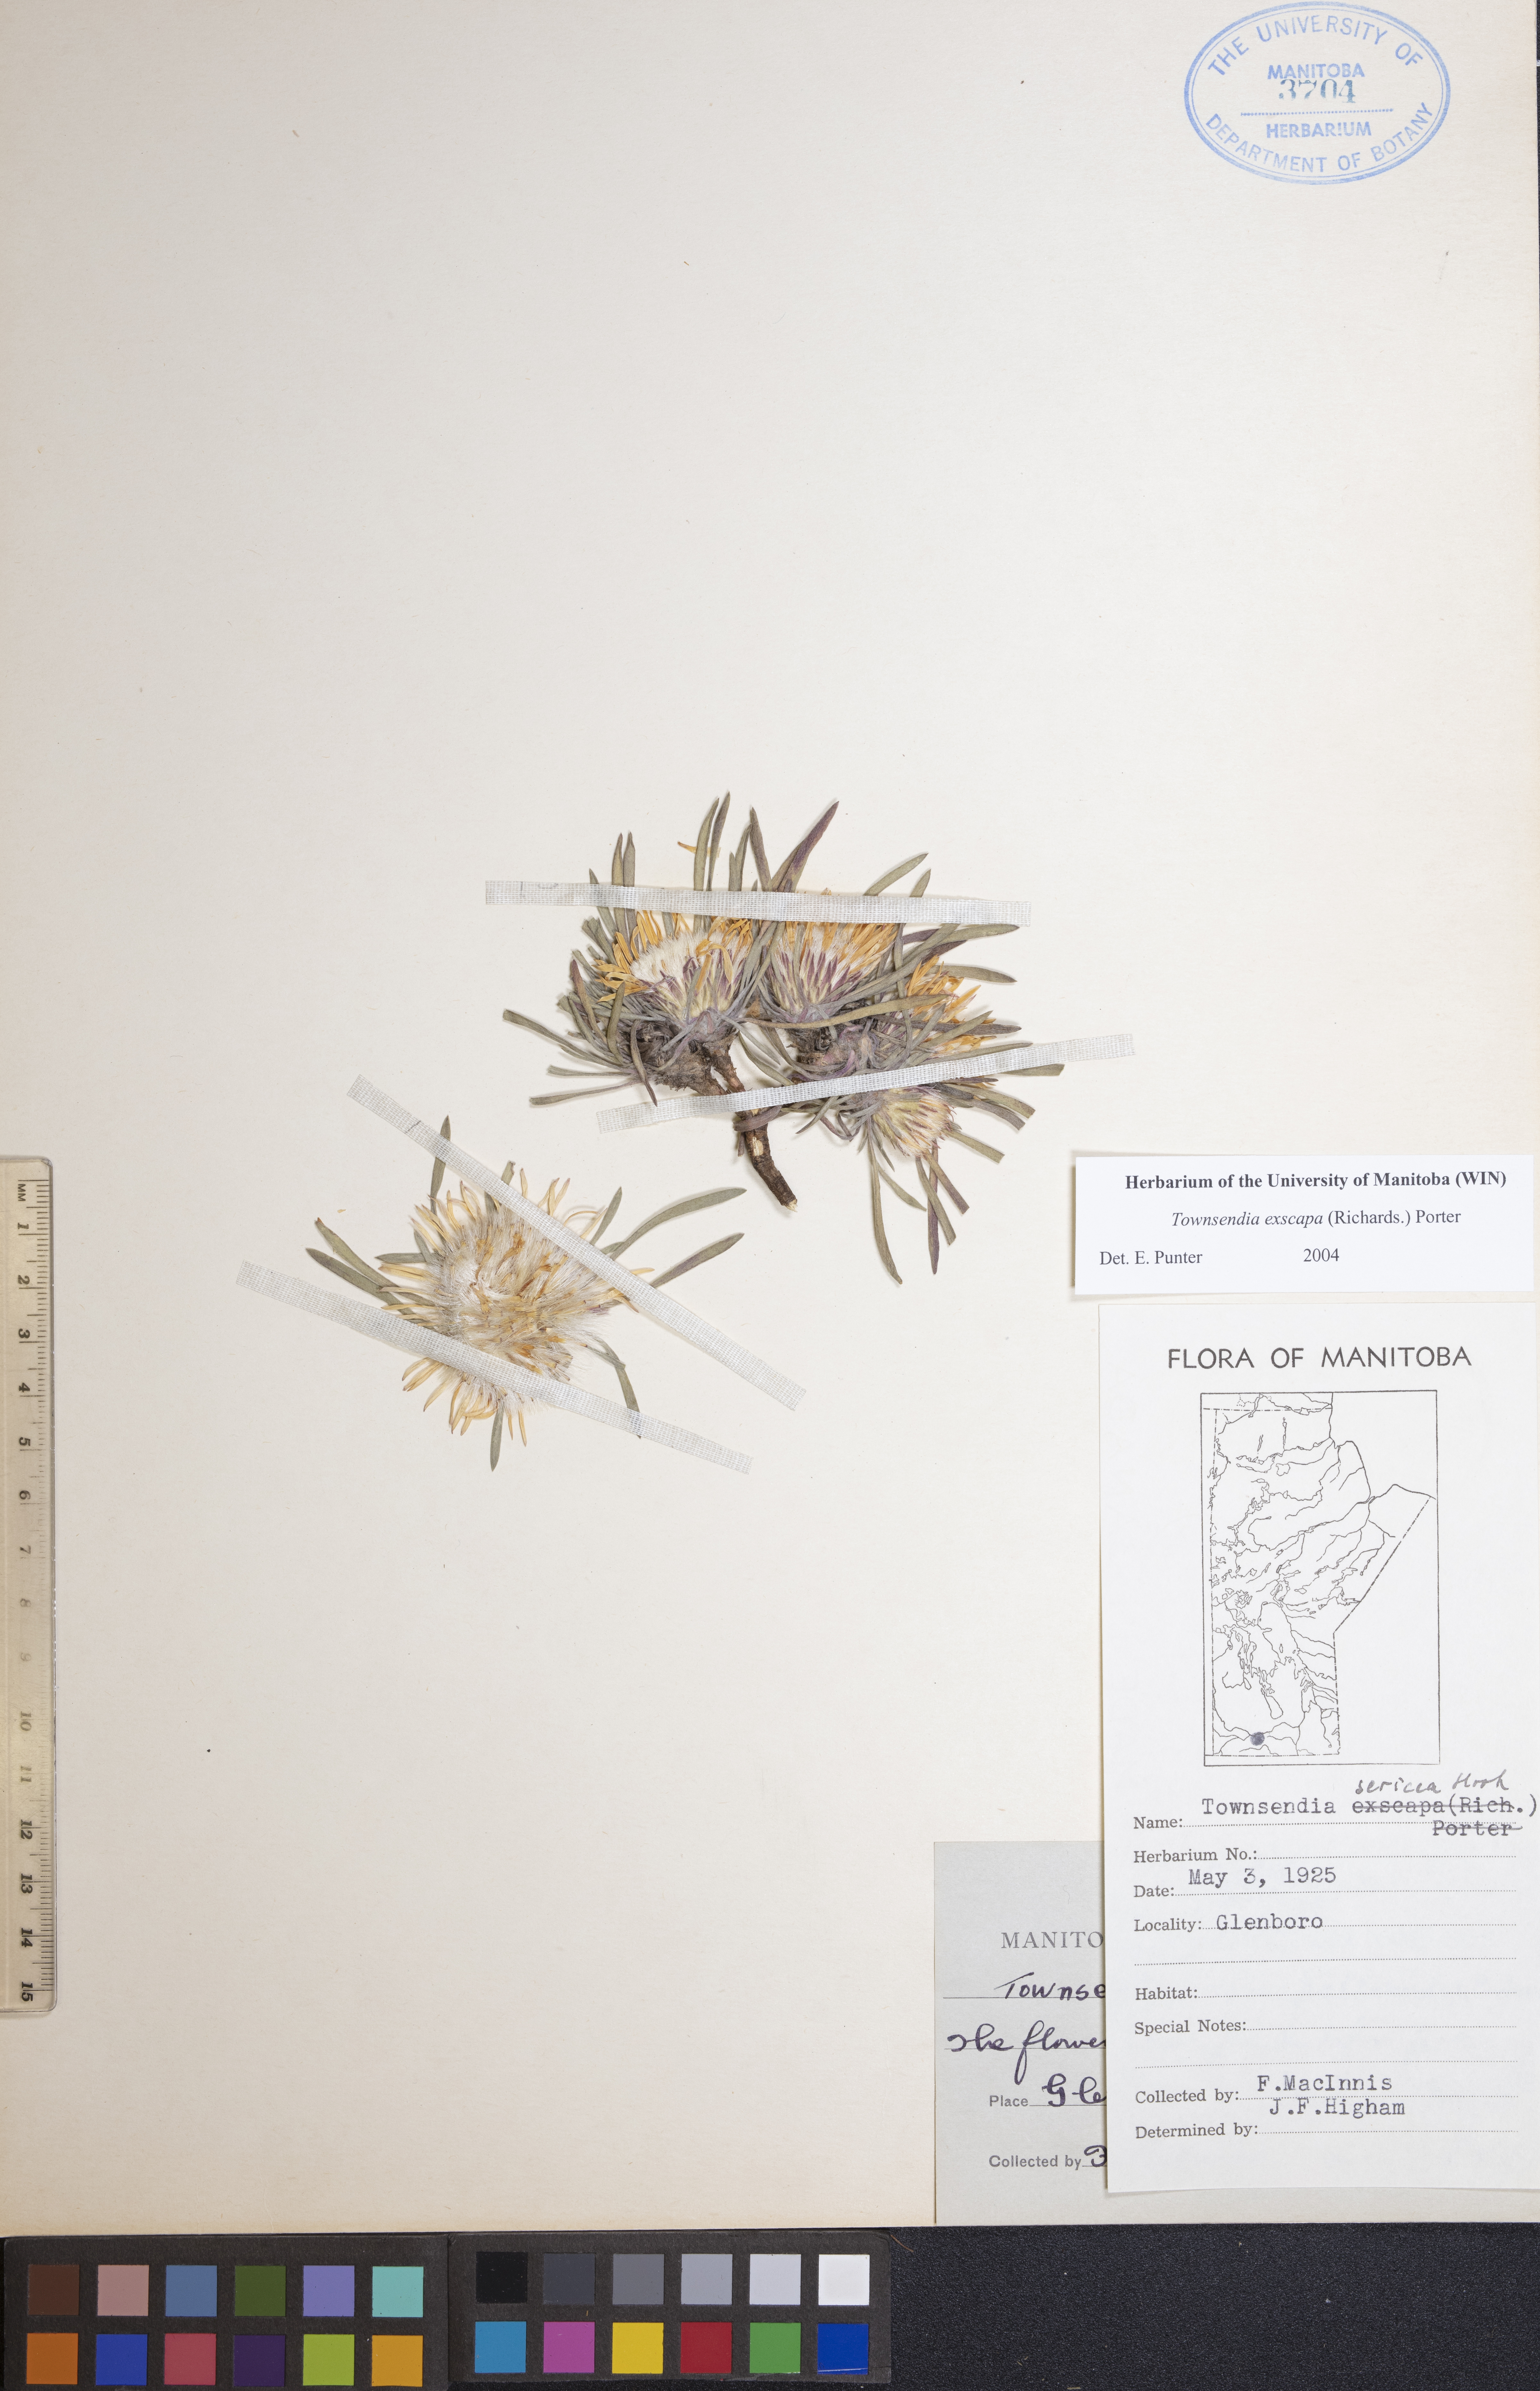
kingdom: Plantae
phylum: Tracheophyta
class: Magnoliopsida
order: Asterales
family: Asteraceae
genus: Townsendia
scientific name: Townsendia exscapa
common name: Dwarf townsendia
